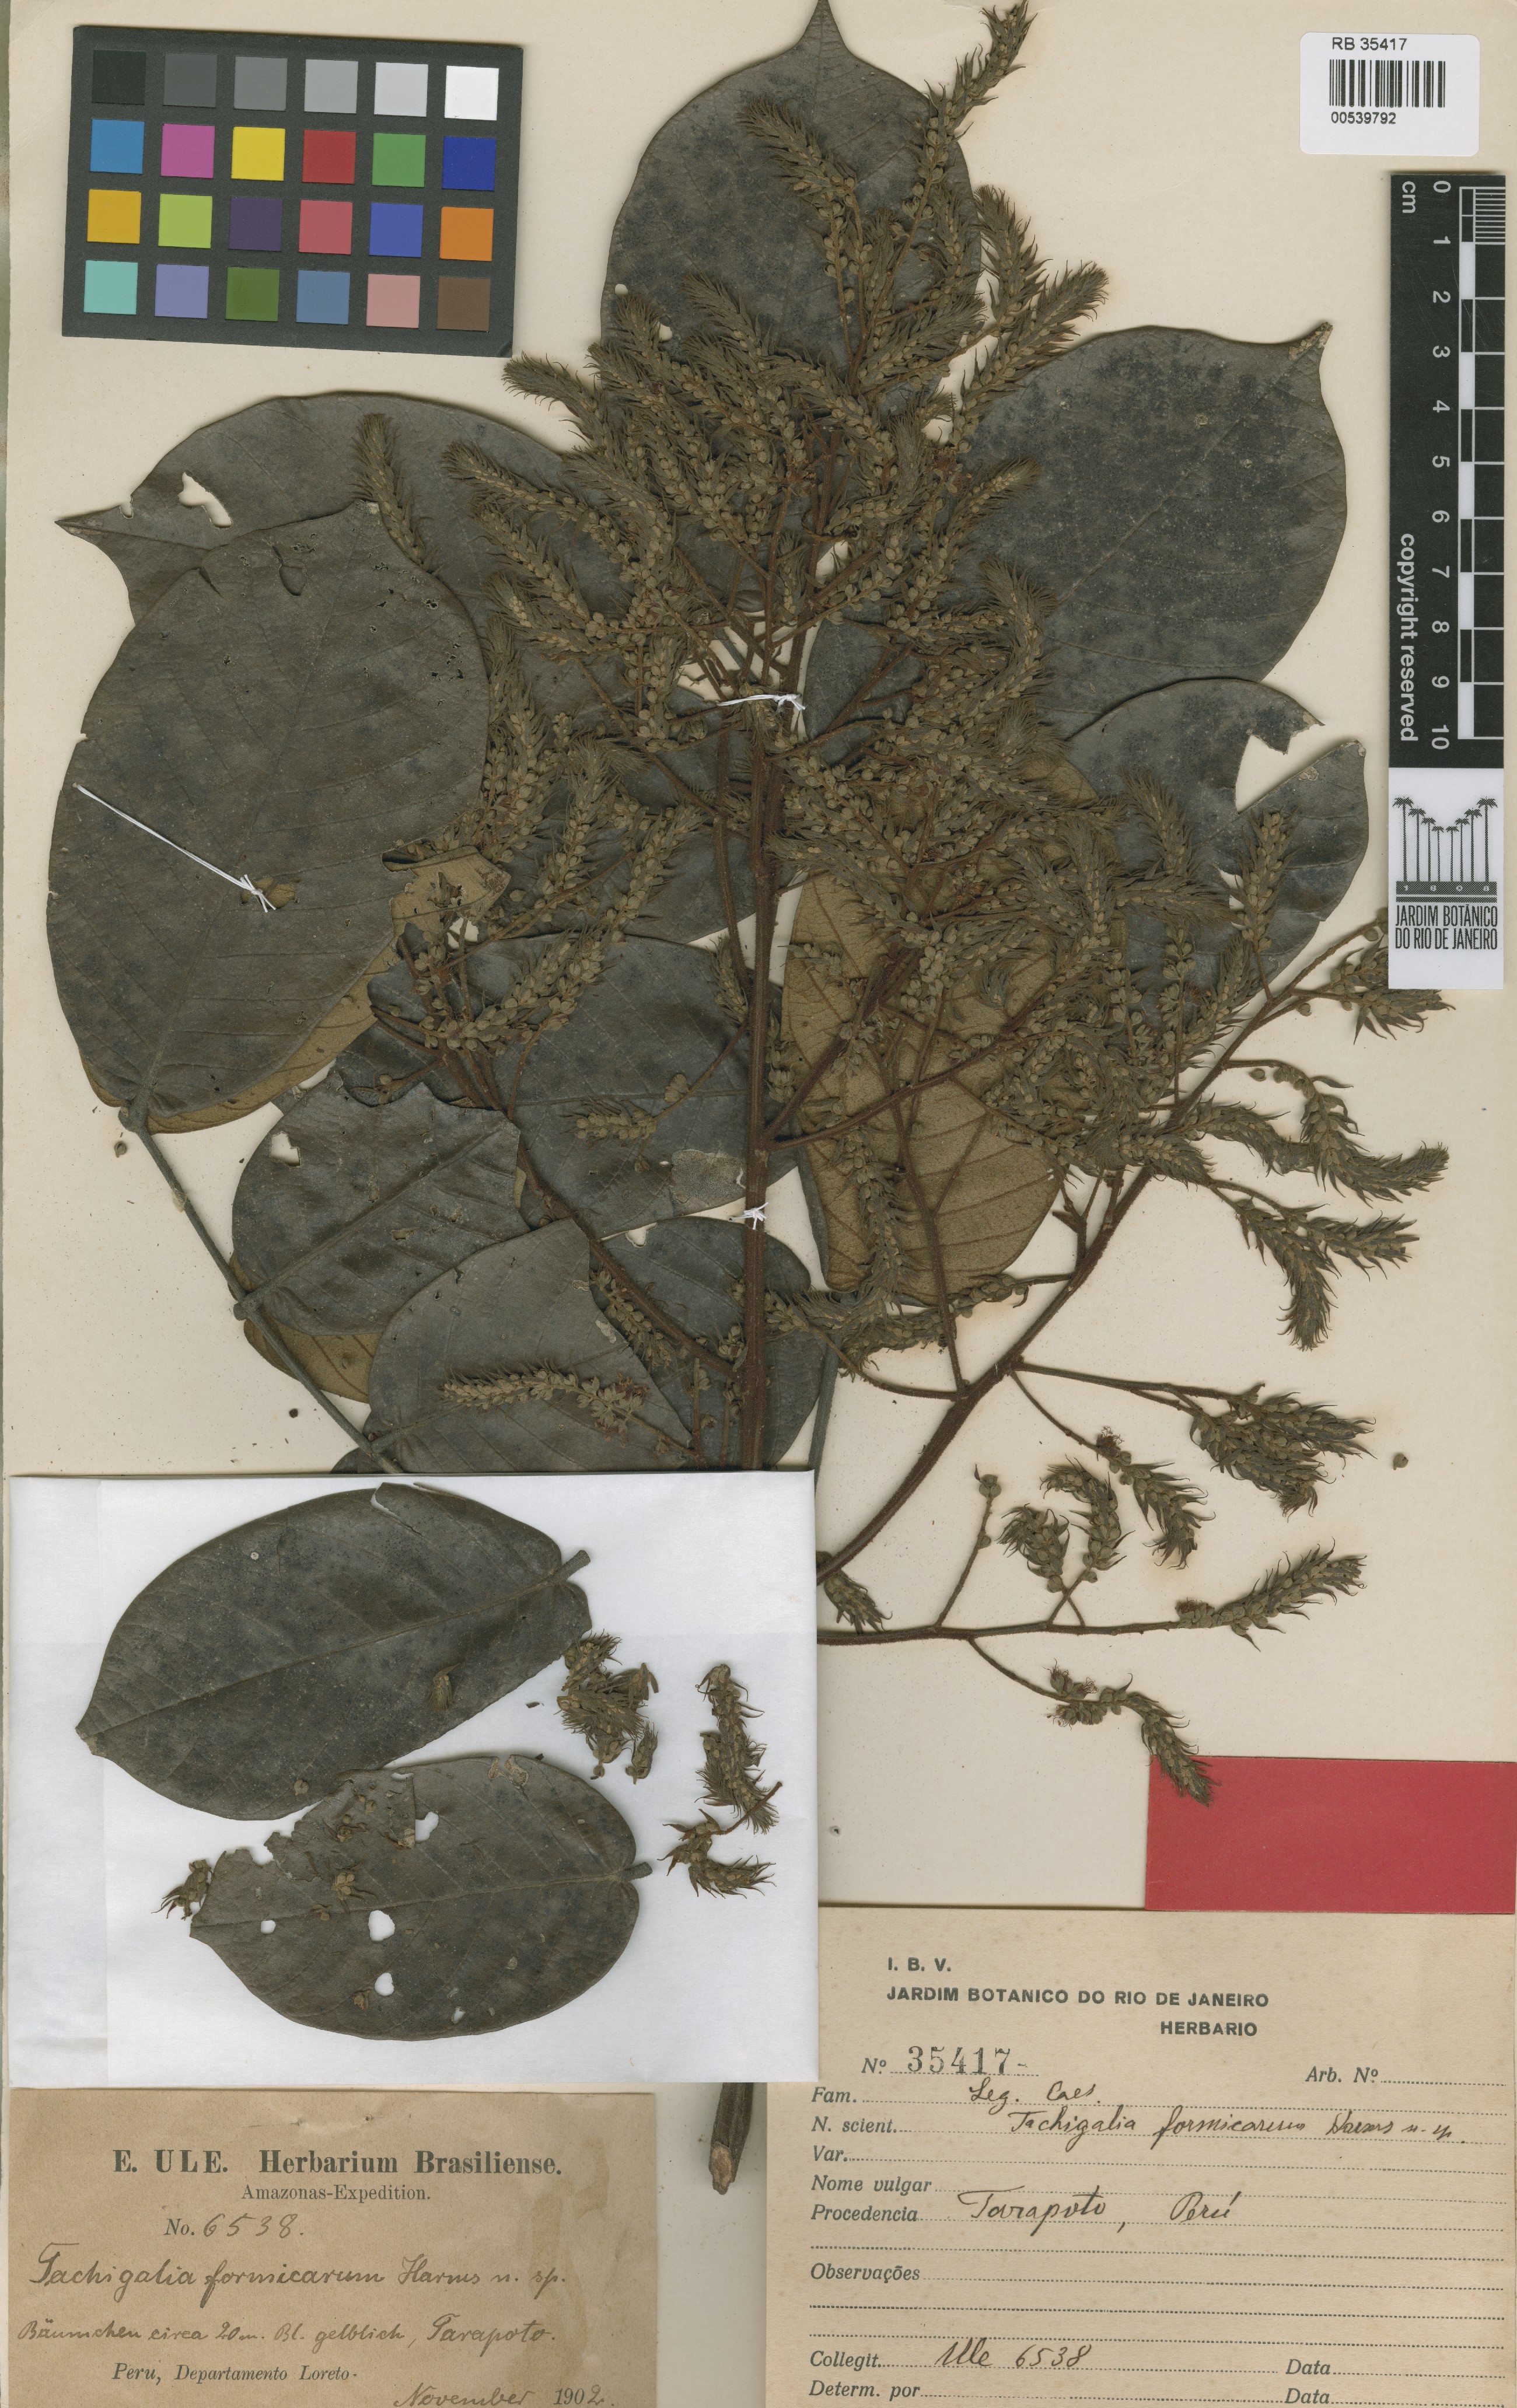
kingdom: Plantae
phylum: Tracheophyta
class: Magnoliopsida
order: Fabales
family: Fabaceae
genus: Tachigali
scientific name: Tachigali formicarum
